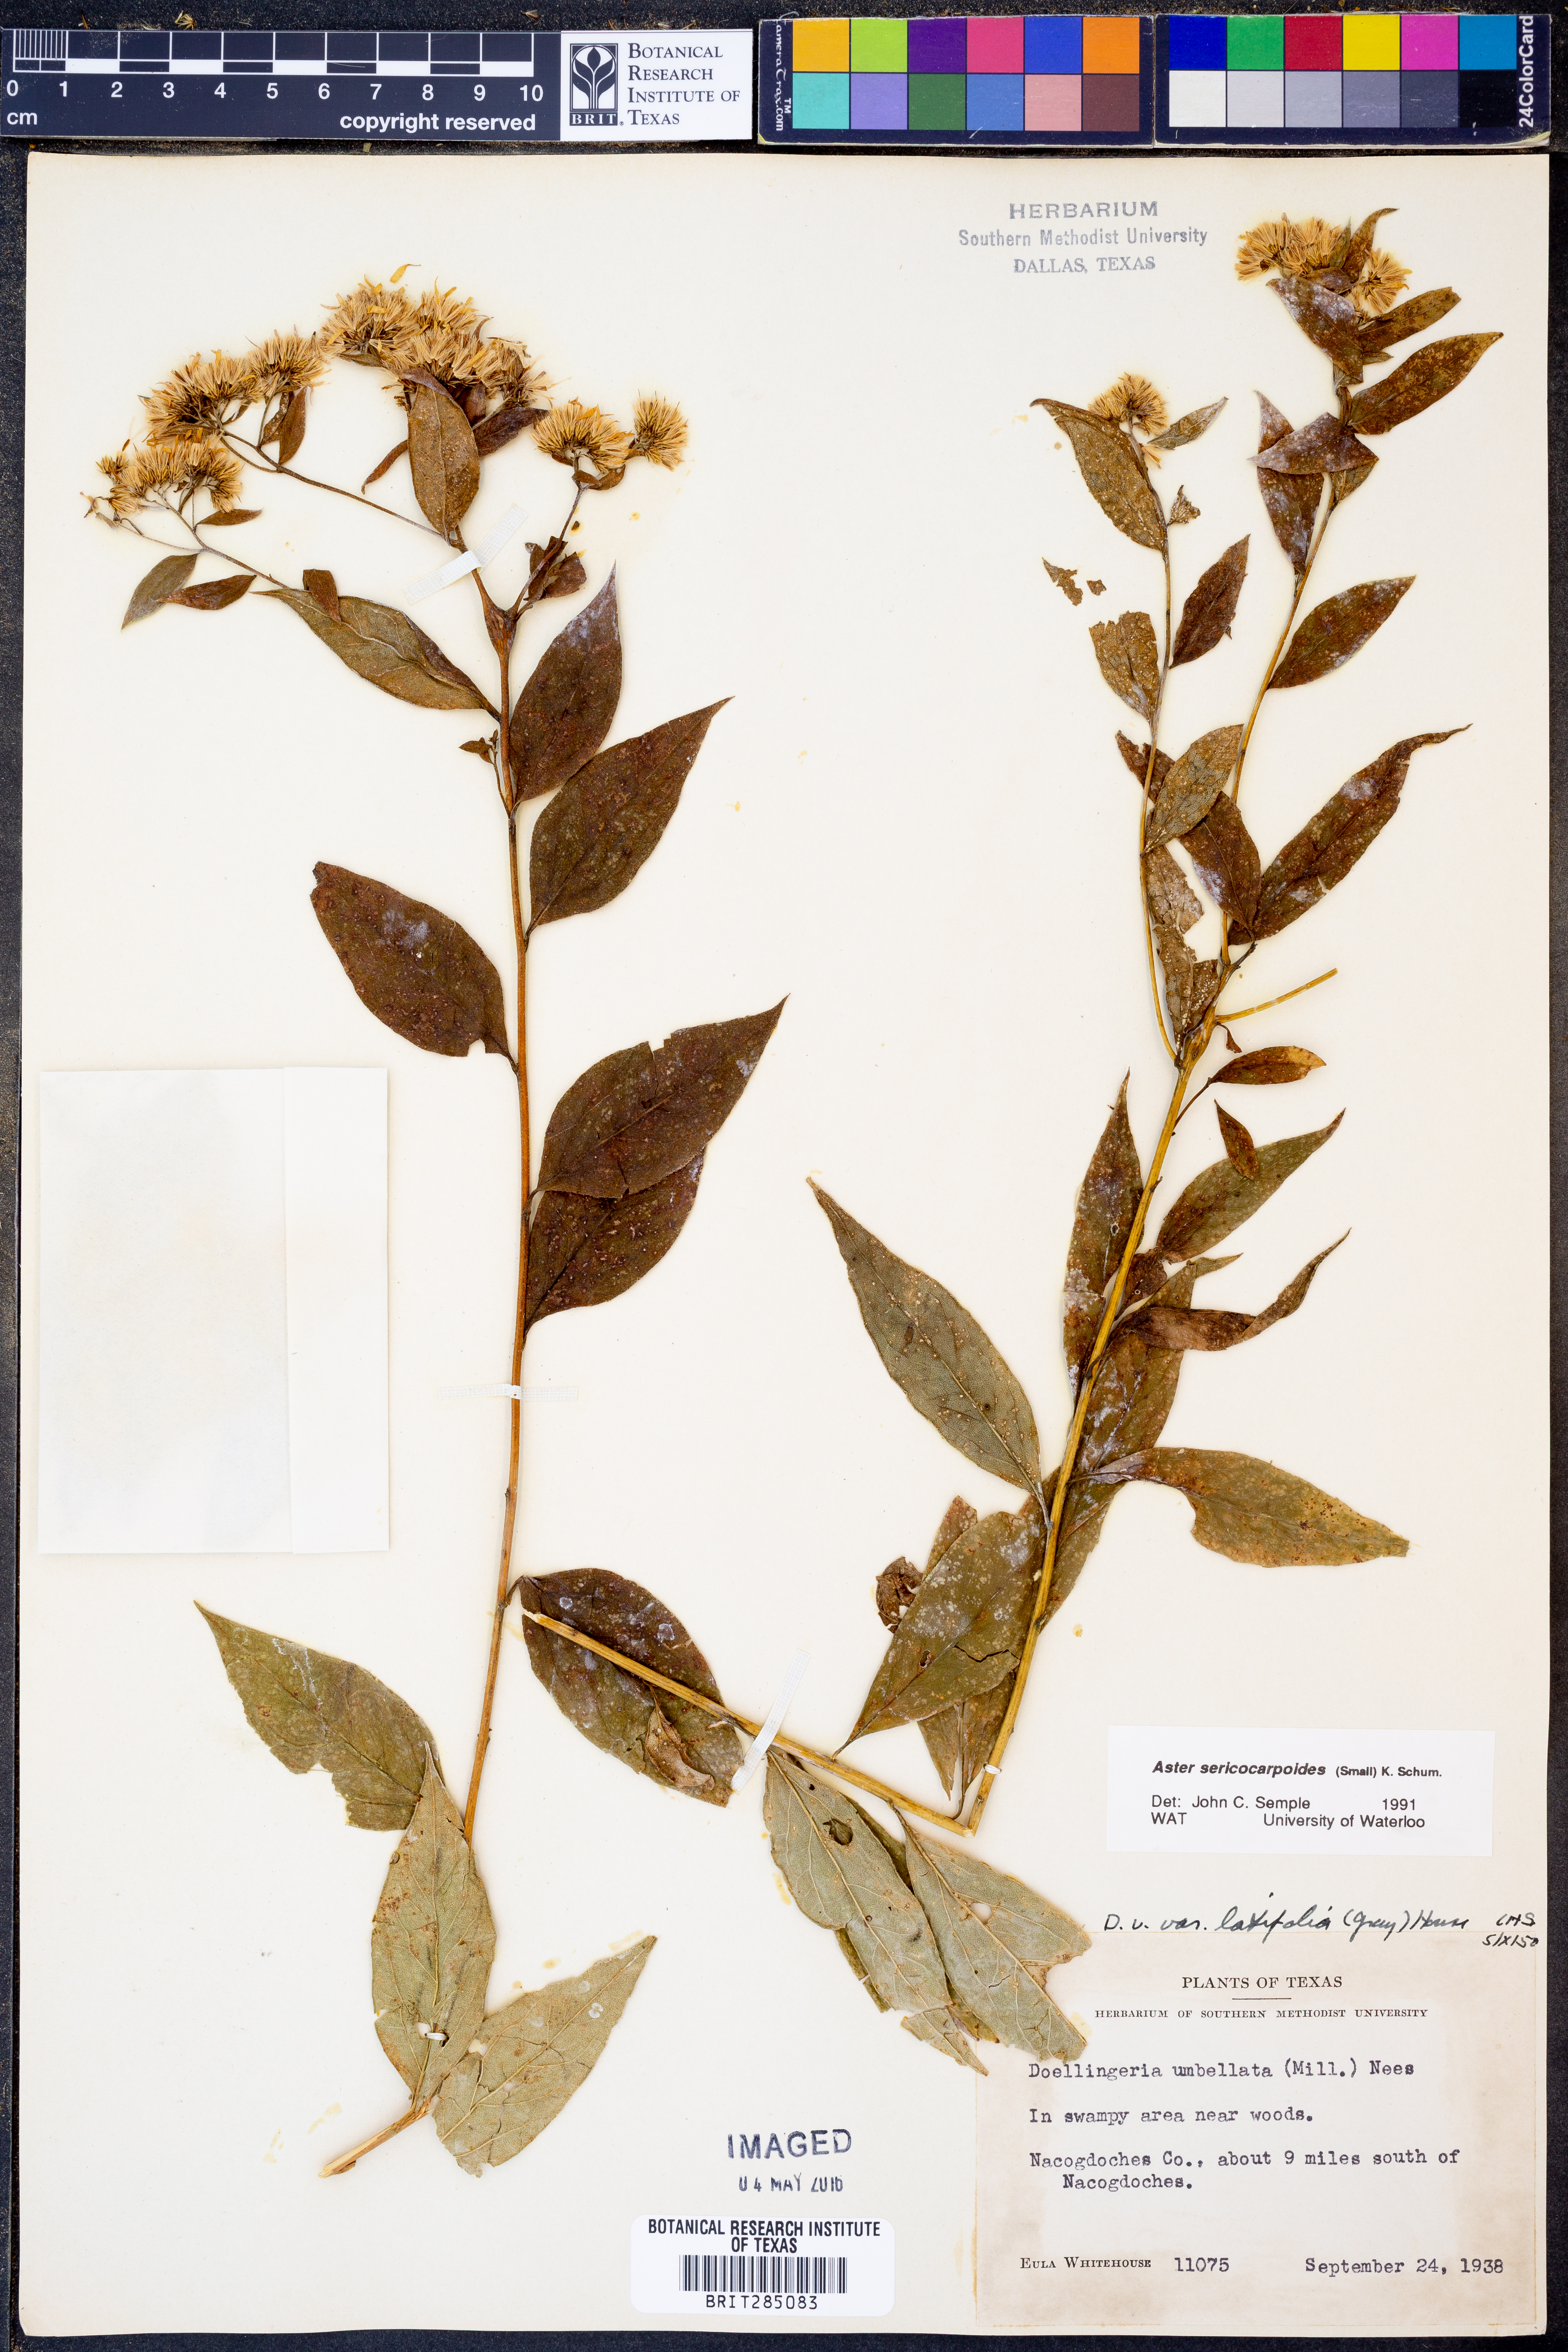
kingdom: Plantae
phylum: Tracheophyta
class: Magnoliopsida
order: Asterales
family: Asteraceae
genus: Doellingeria
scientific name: Doellingeria sericocarpoides
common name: Southern tall flat-top aster
